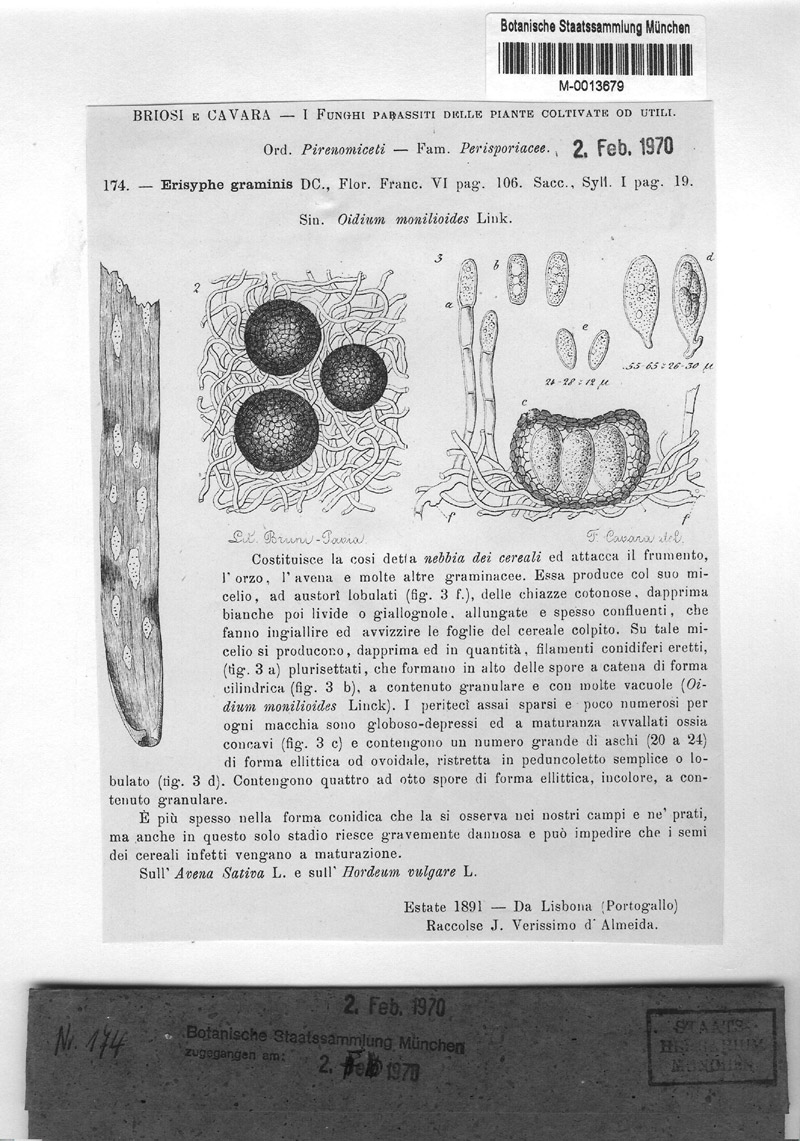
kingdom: Fungi
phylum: Ascomycota
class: Leotiomycetes
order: Helotiales
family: Erysiphaceae
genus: Blumeria
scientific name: Blumeria graminis
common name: Grass and cereal powdery mildew
